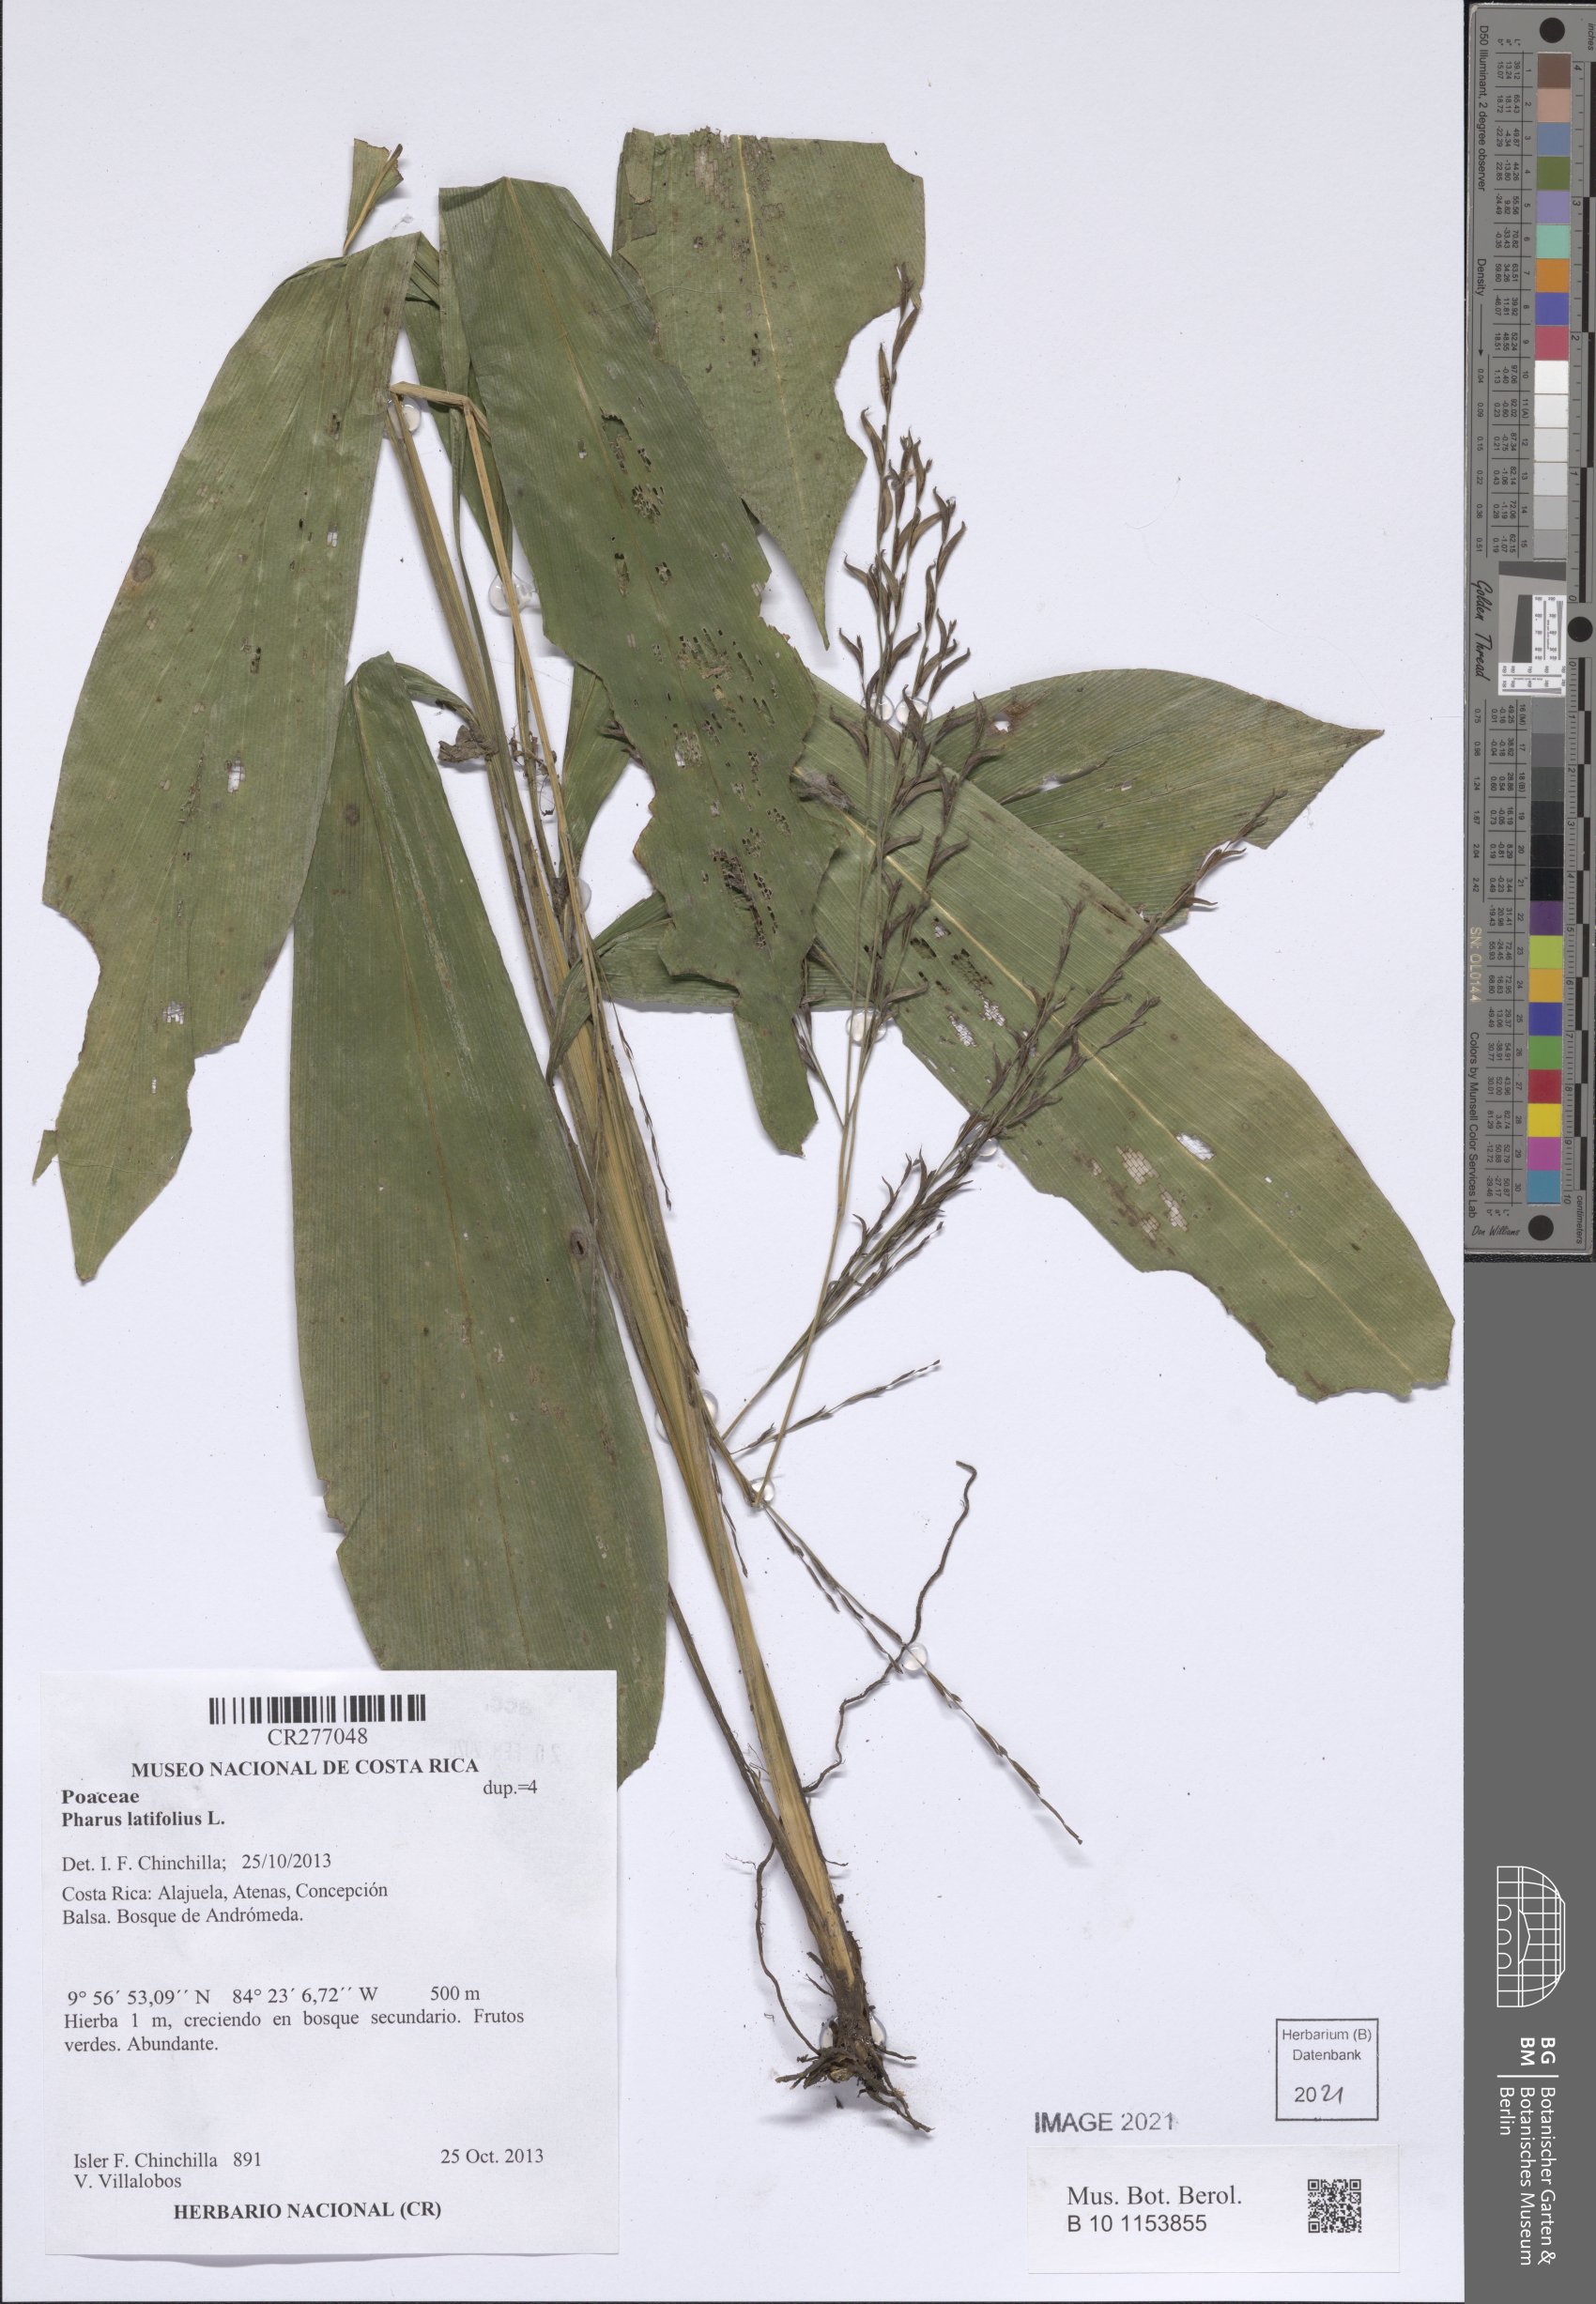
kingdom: Plantae
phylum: Tracheophyta
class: Liliopsida
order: Poales
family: Poaceae
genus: Pharus
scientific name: Pharus latifolius
